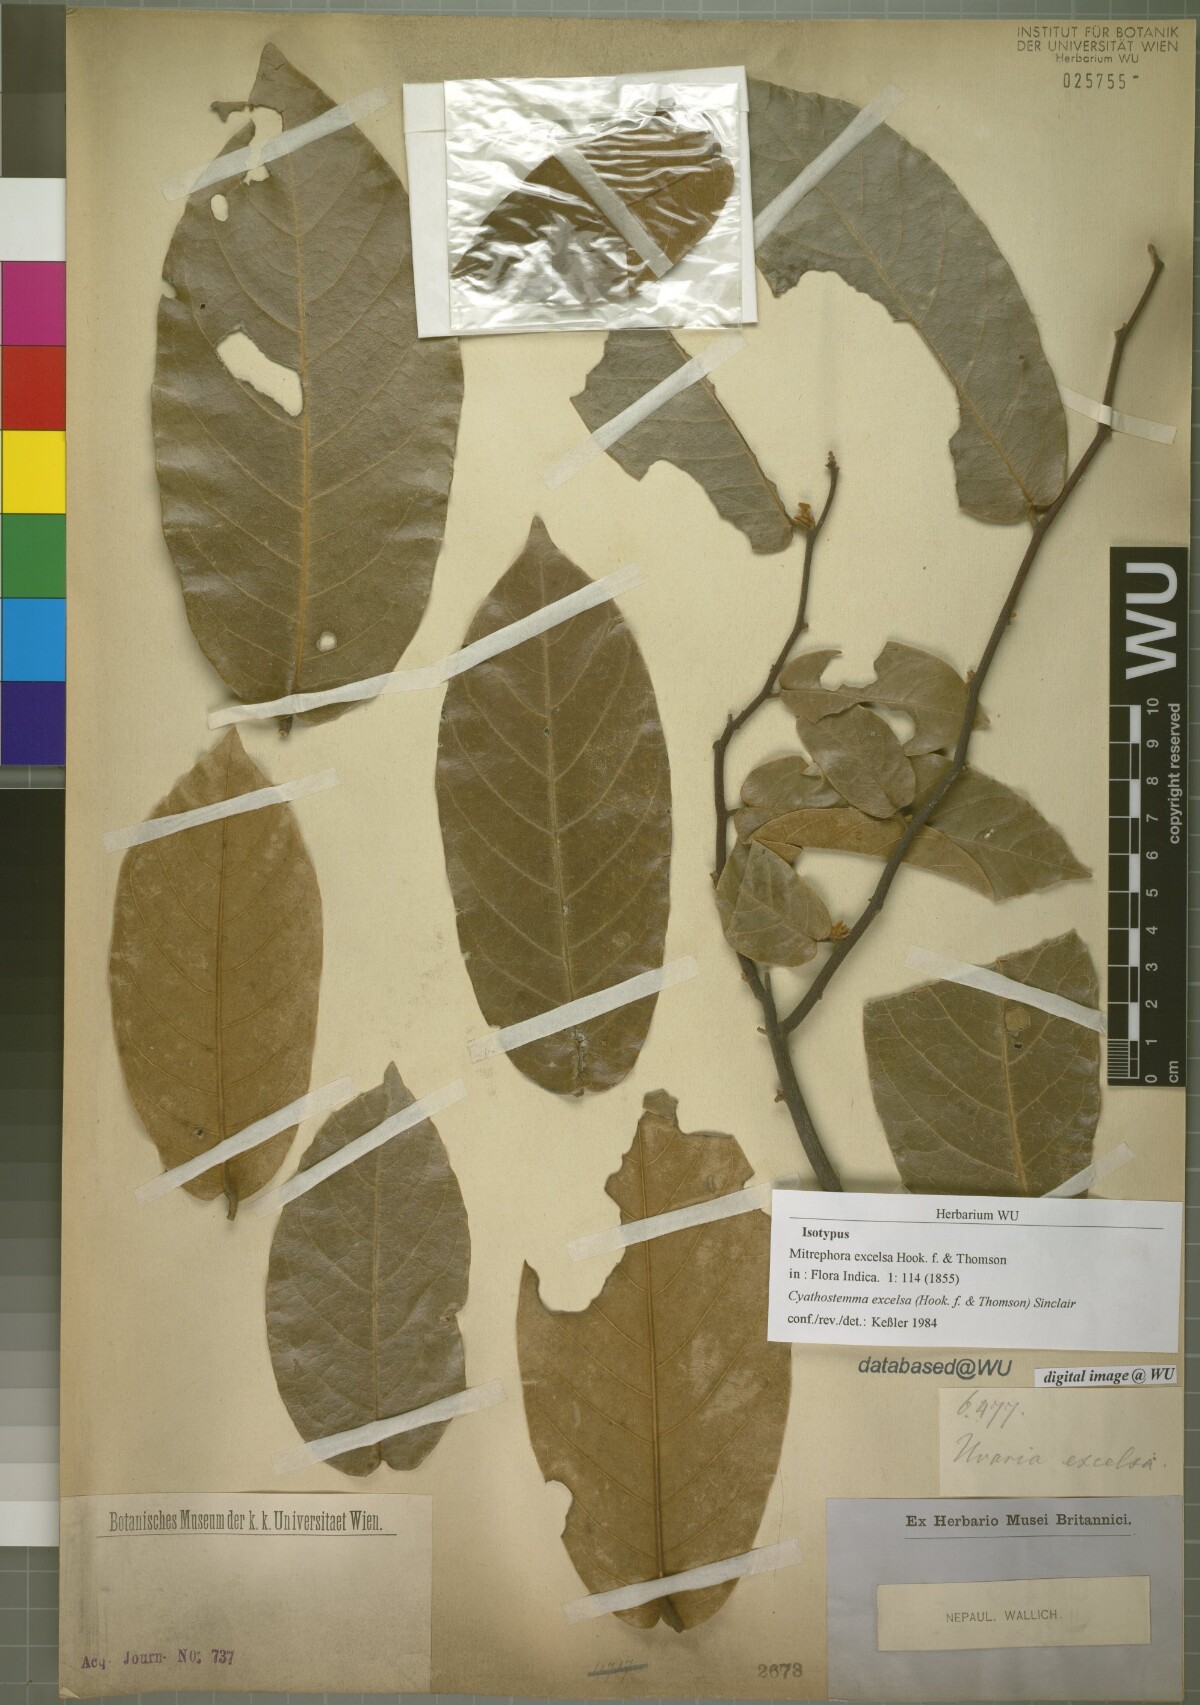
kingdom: Plantae
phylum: Tracheophyta
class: Magnoliopsida
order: Magnoliales
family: Annonaceae
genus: Uvaria
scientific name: Uvaria excelsa
